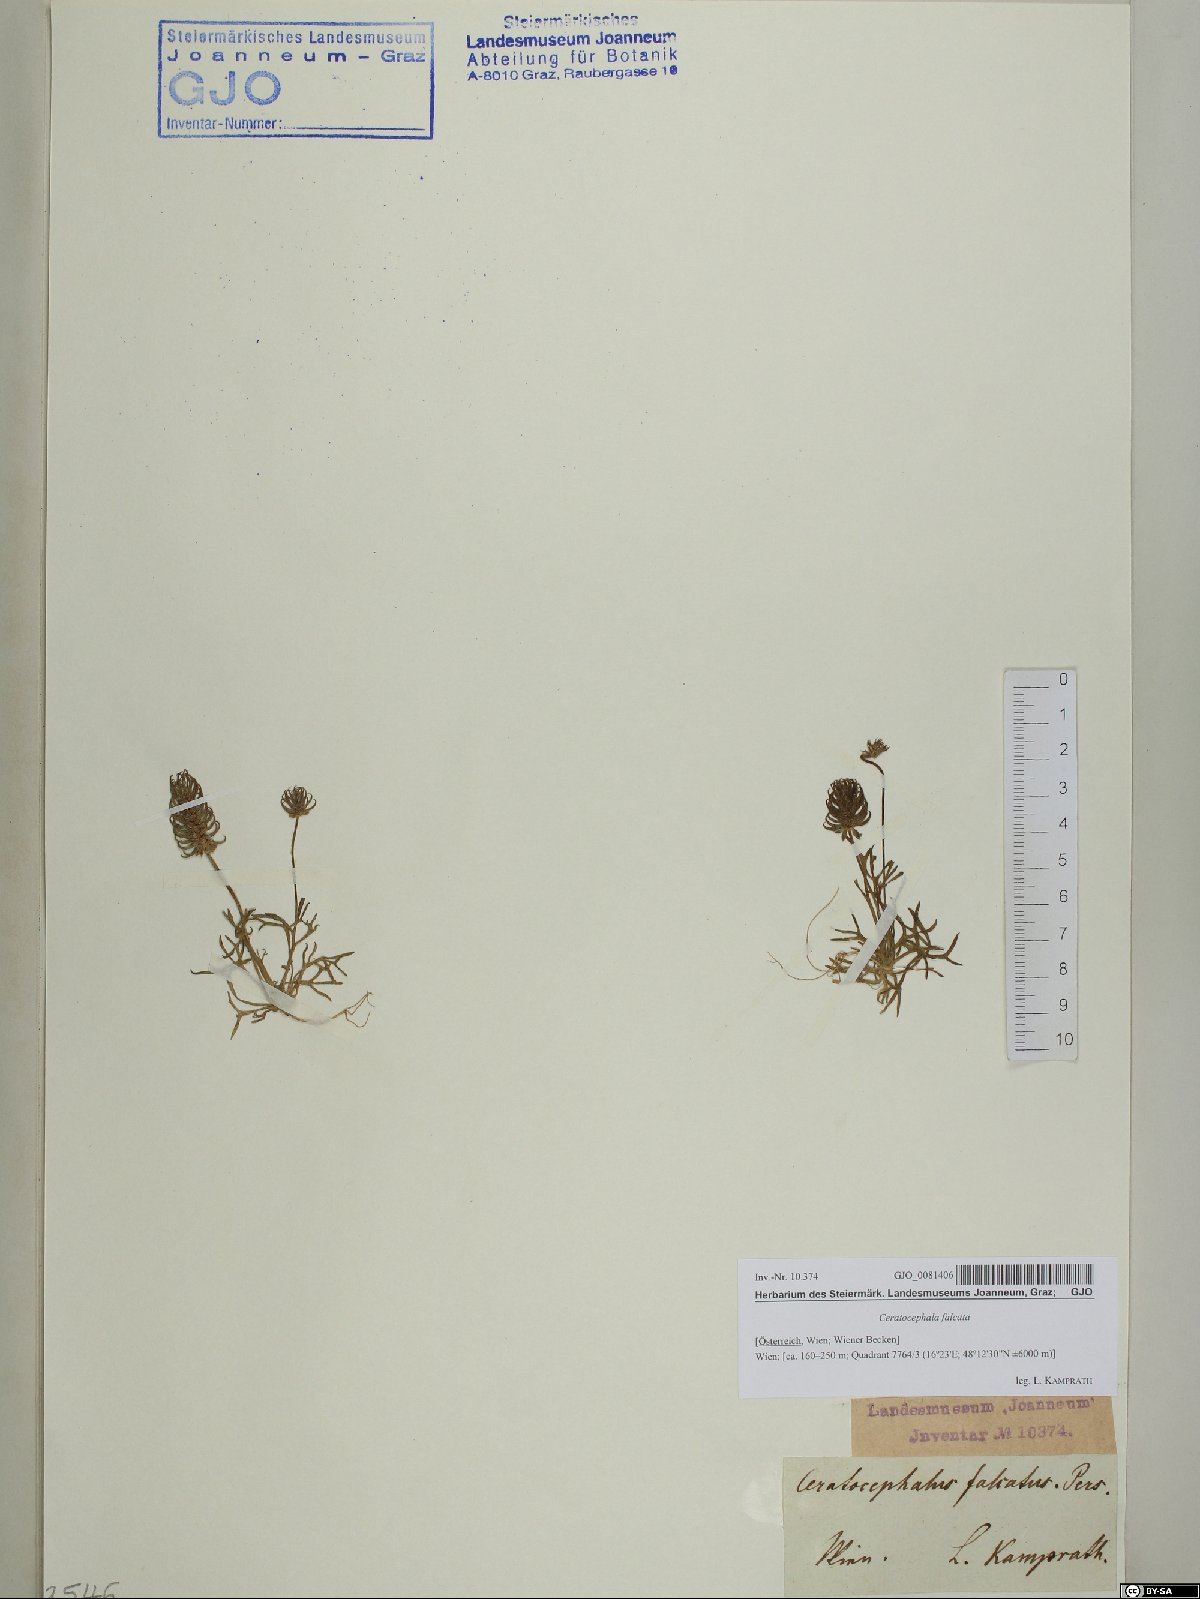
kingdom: Plantae
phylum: Tracheophyta
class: Magnoliopsida
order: Ranunculales
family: Ranunculaceae
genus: Ceratocephala
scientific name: Ceratocephala falcata
